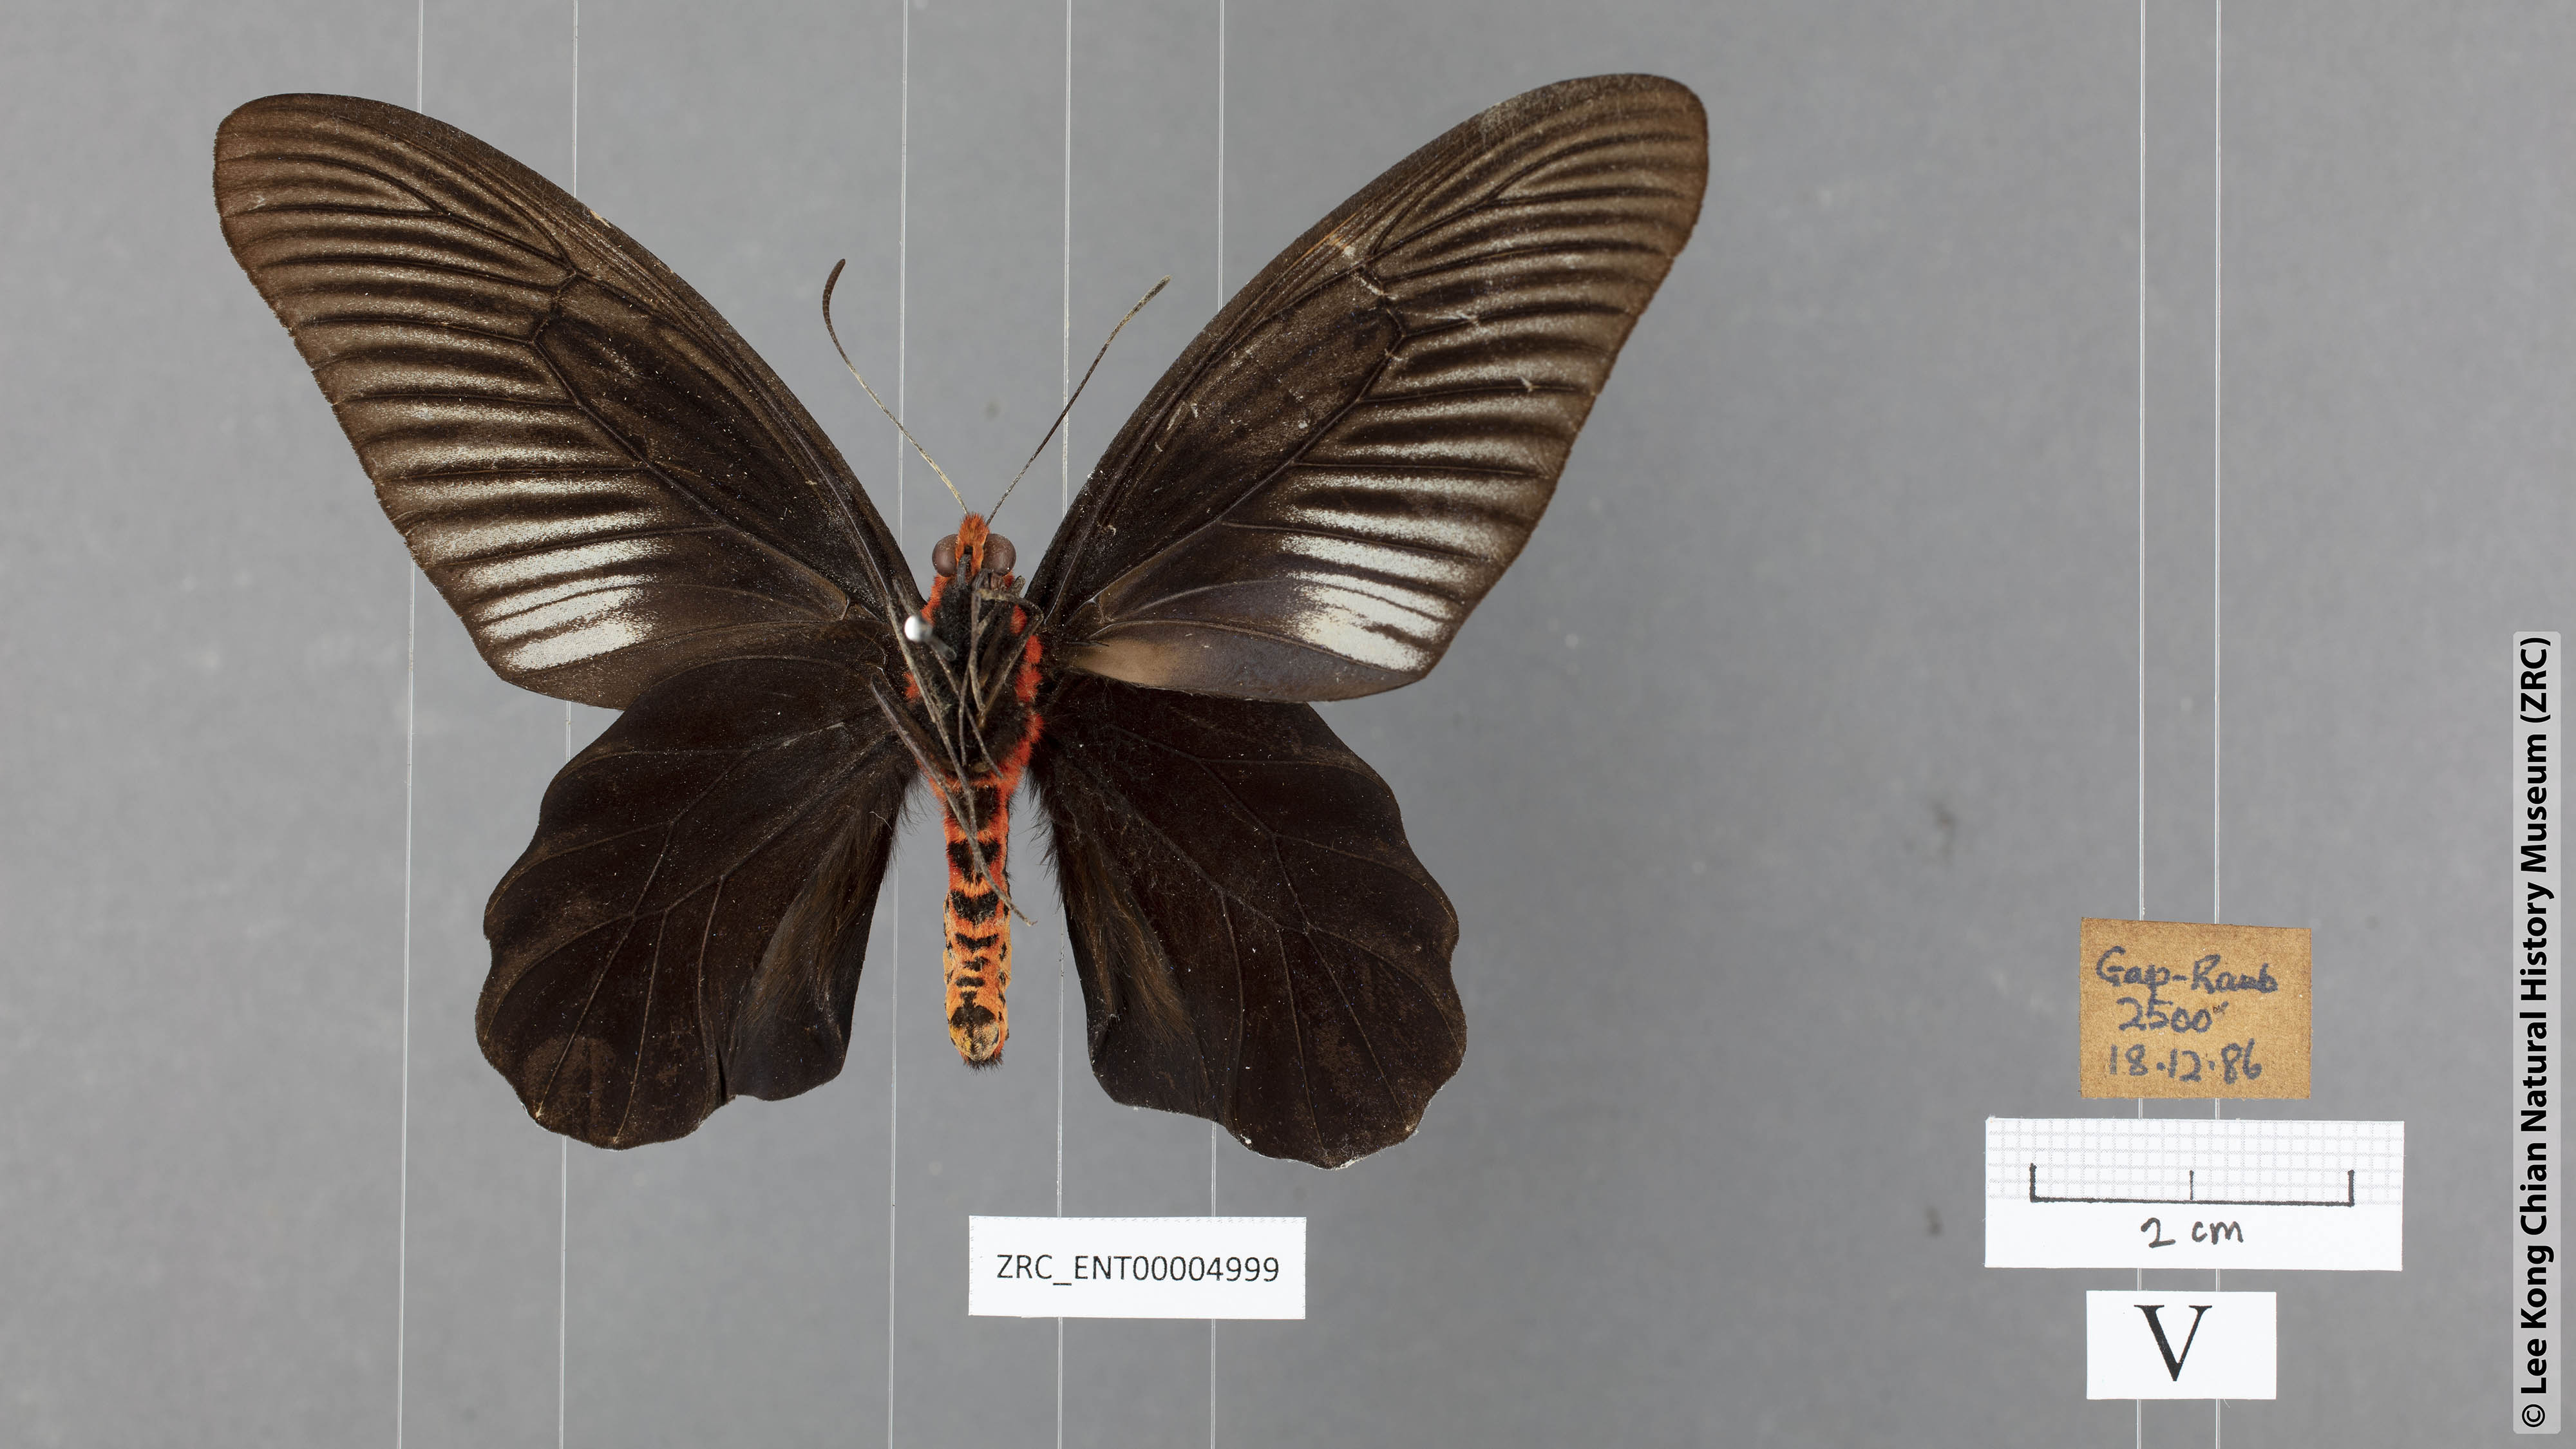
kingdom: Animalia
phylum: Arthropoda
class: Insecta
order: Lepidoptera
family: Papilionidae
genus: Atrophaneura
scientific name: Atrophaneura varuna
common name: Common batwing
